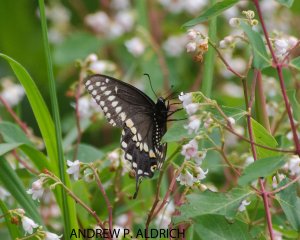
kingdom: Animalia
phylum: Arthropoda
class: Insecta
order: Lepidoptera
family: Papilionidae
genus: Papilio
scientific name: Papilio polyxenes
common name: Black Swallowtail
